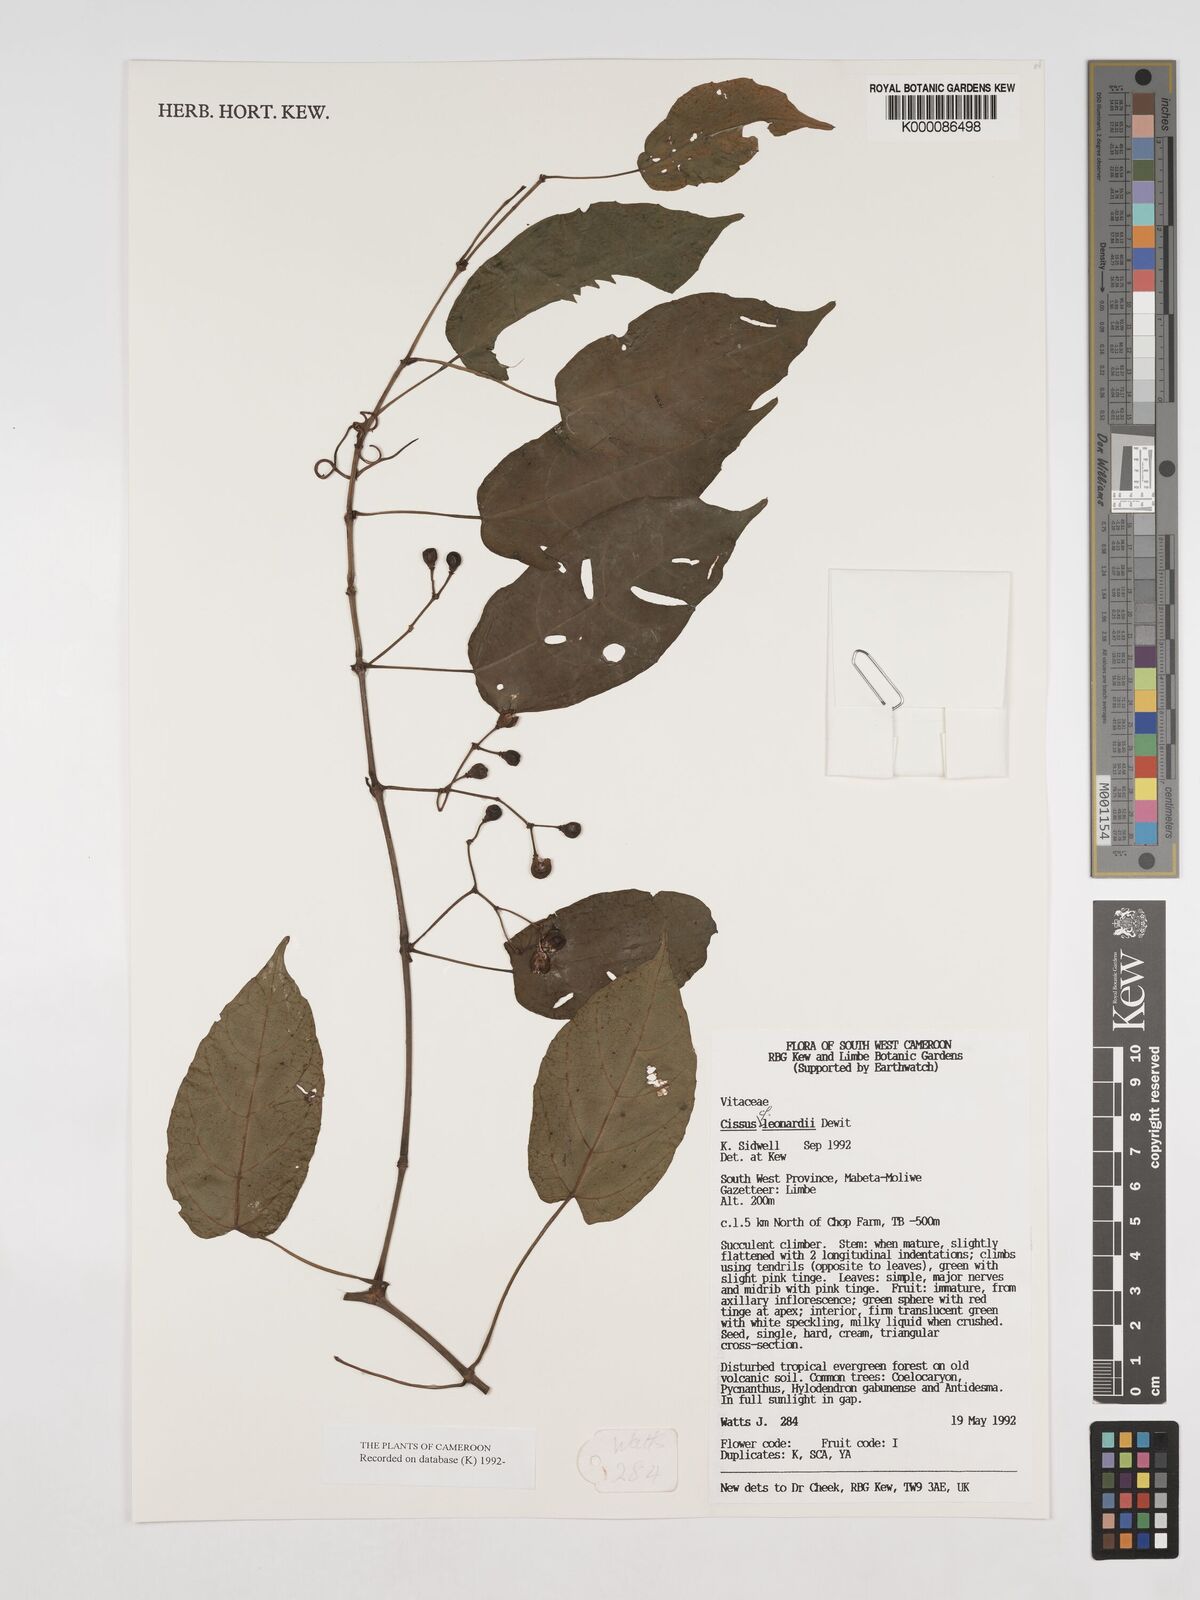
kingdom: Plantae
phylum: Tracheophyta
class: Magnoliopsida
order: Vitales
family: Vitaceae
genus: Cissus
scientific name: Cissus leonardii
